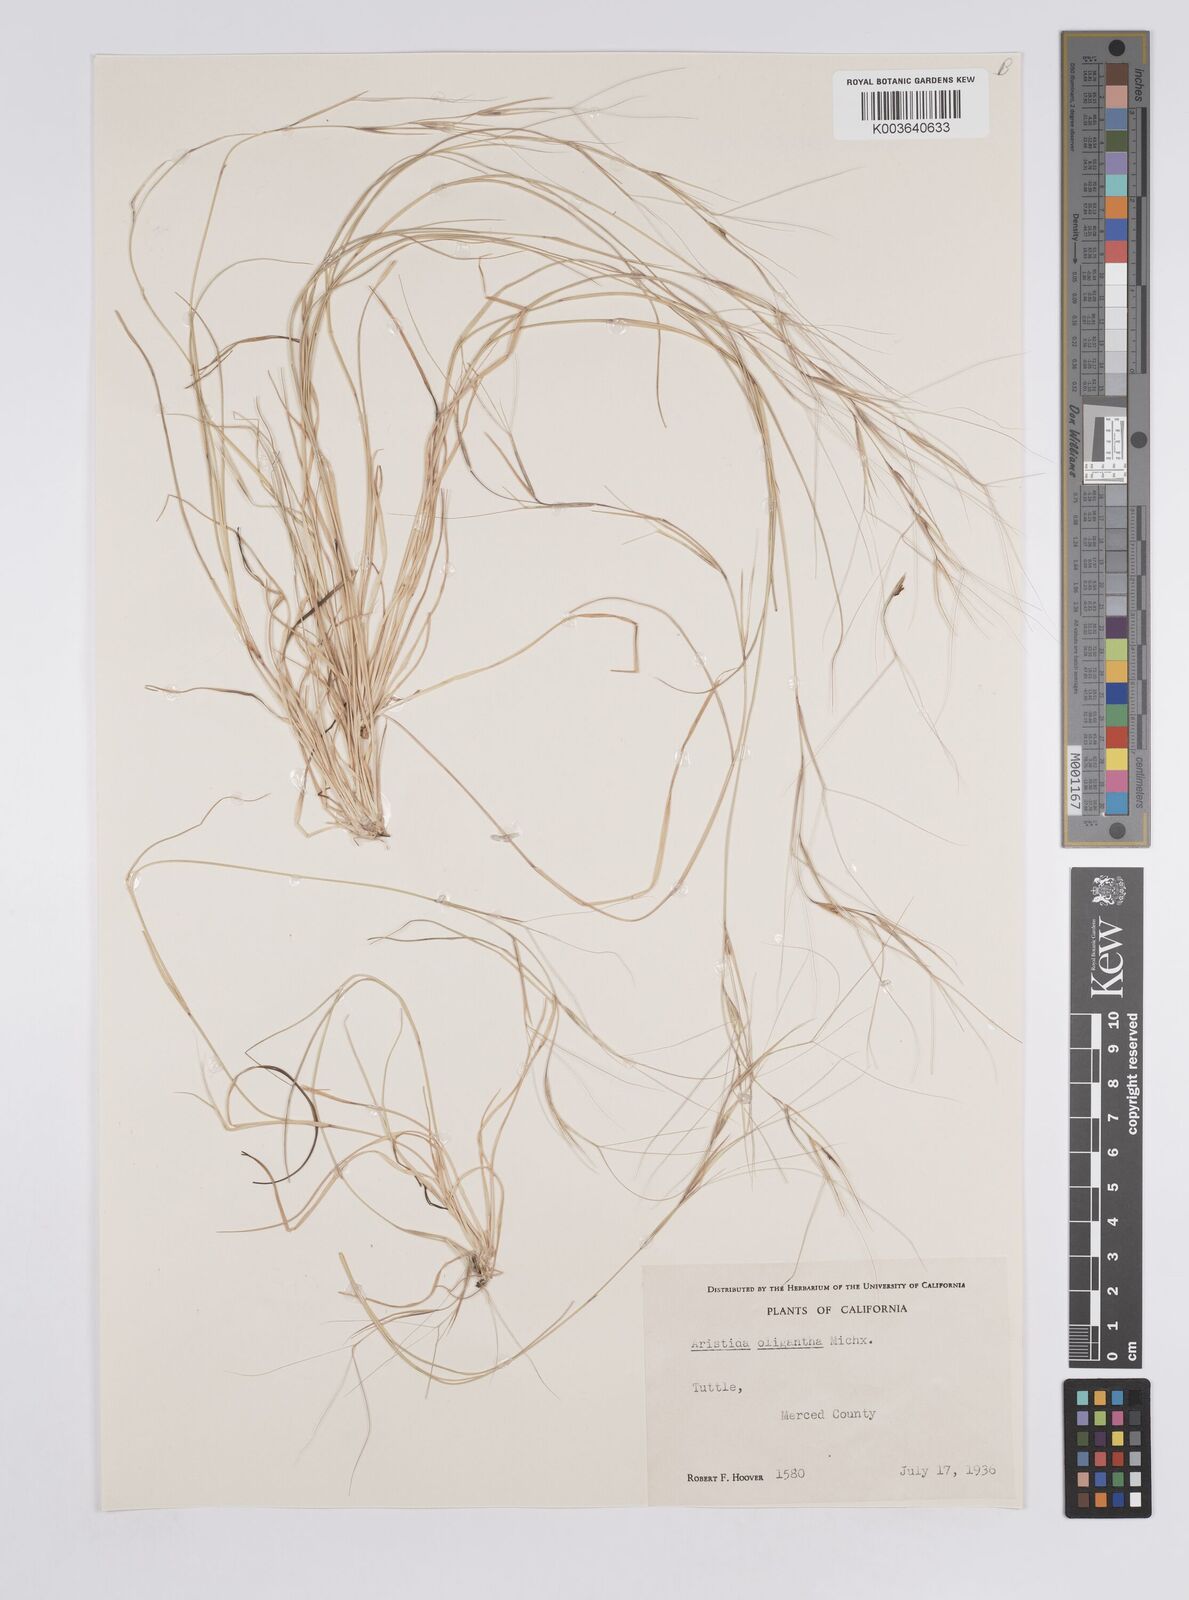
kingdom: Plantae
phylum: Tracheophyta
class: Liliopsida
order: Poales
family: Poaceae
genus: Aristida
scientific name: Aristida oligantha
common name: Few-flowered aristida
